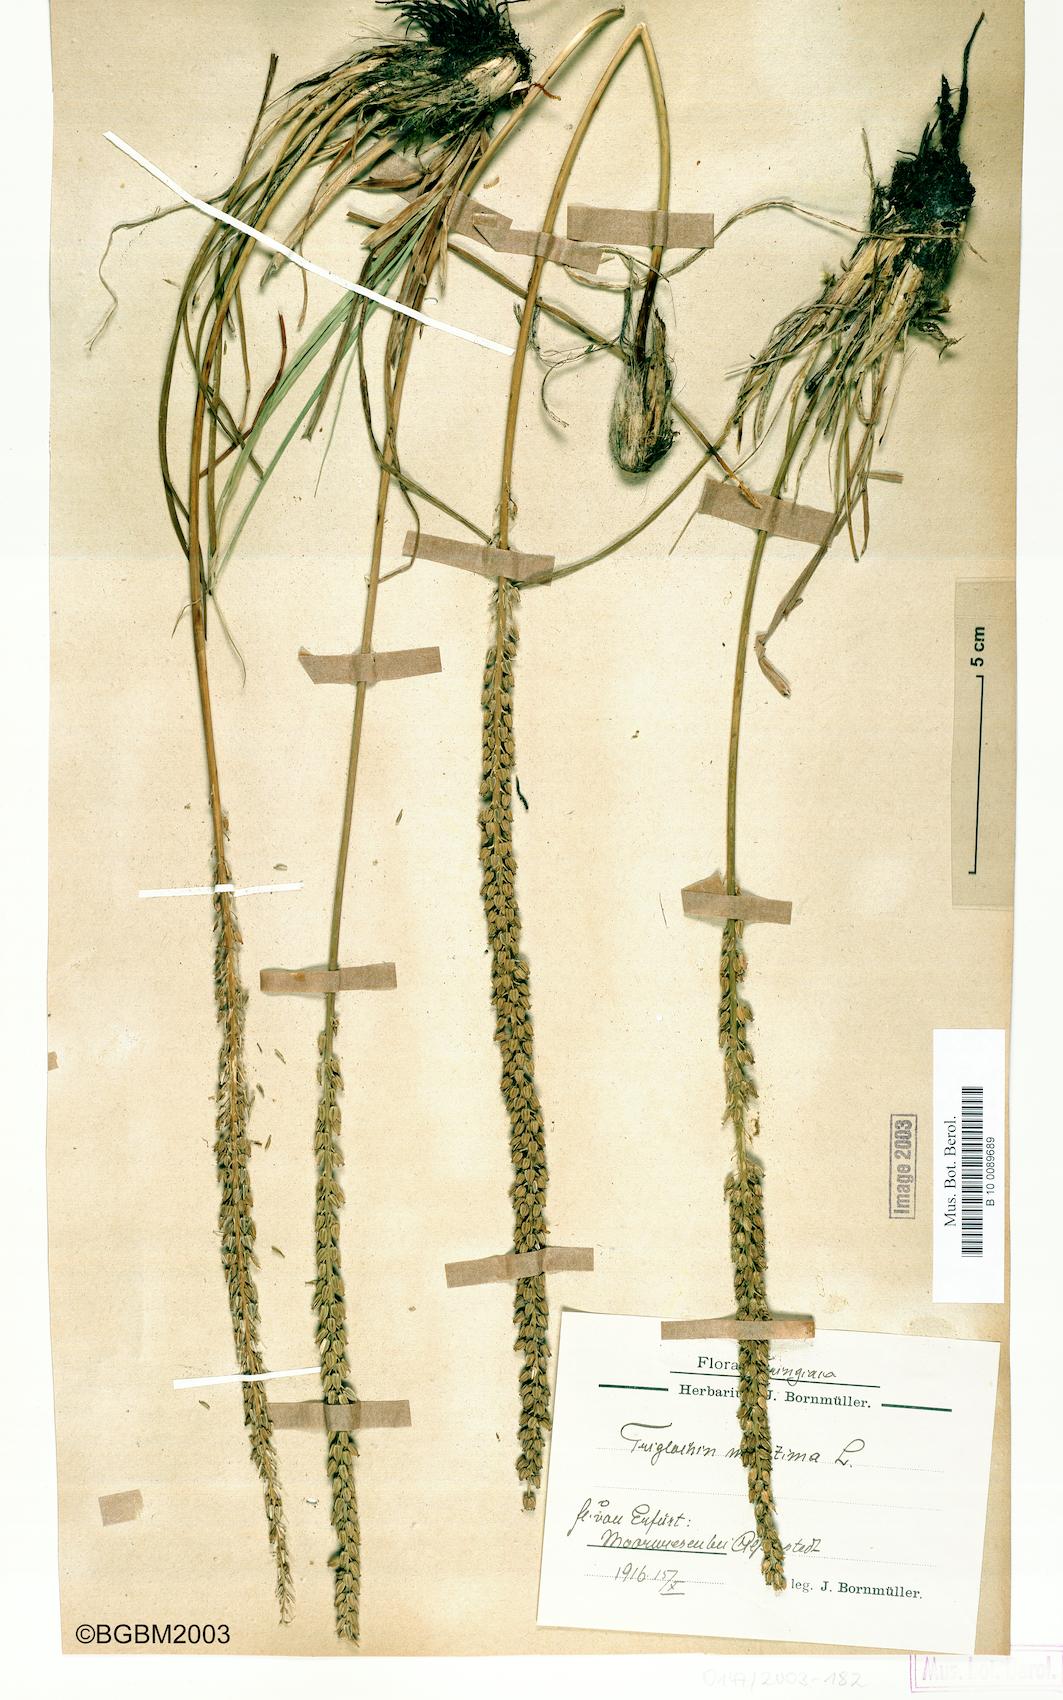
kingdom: Plantae
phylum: Tracheophyta
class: Liliopsida
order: Alismatales
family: Juncaginaceae
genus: Triglochin
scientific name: Triglochin maritima
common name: Sea arrowgrass
